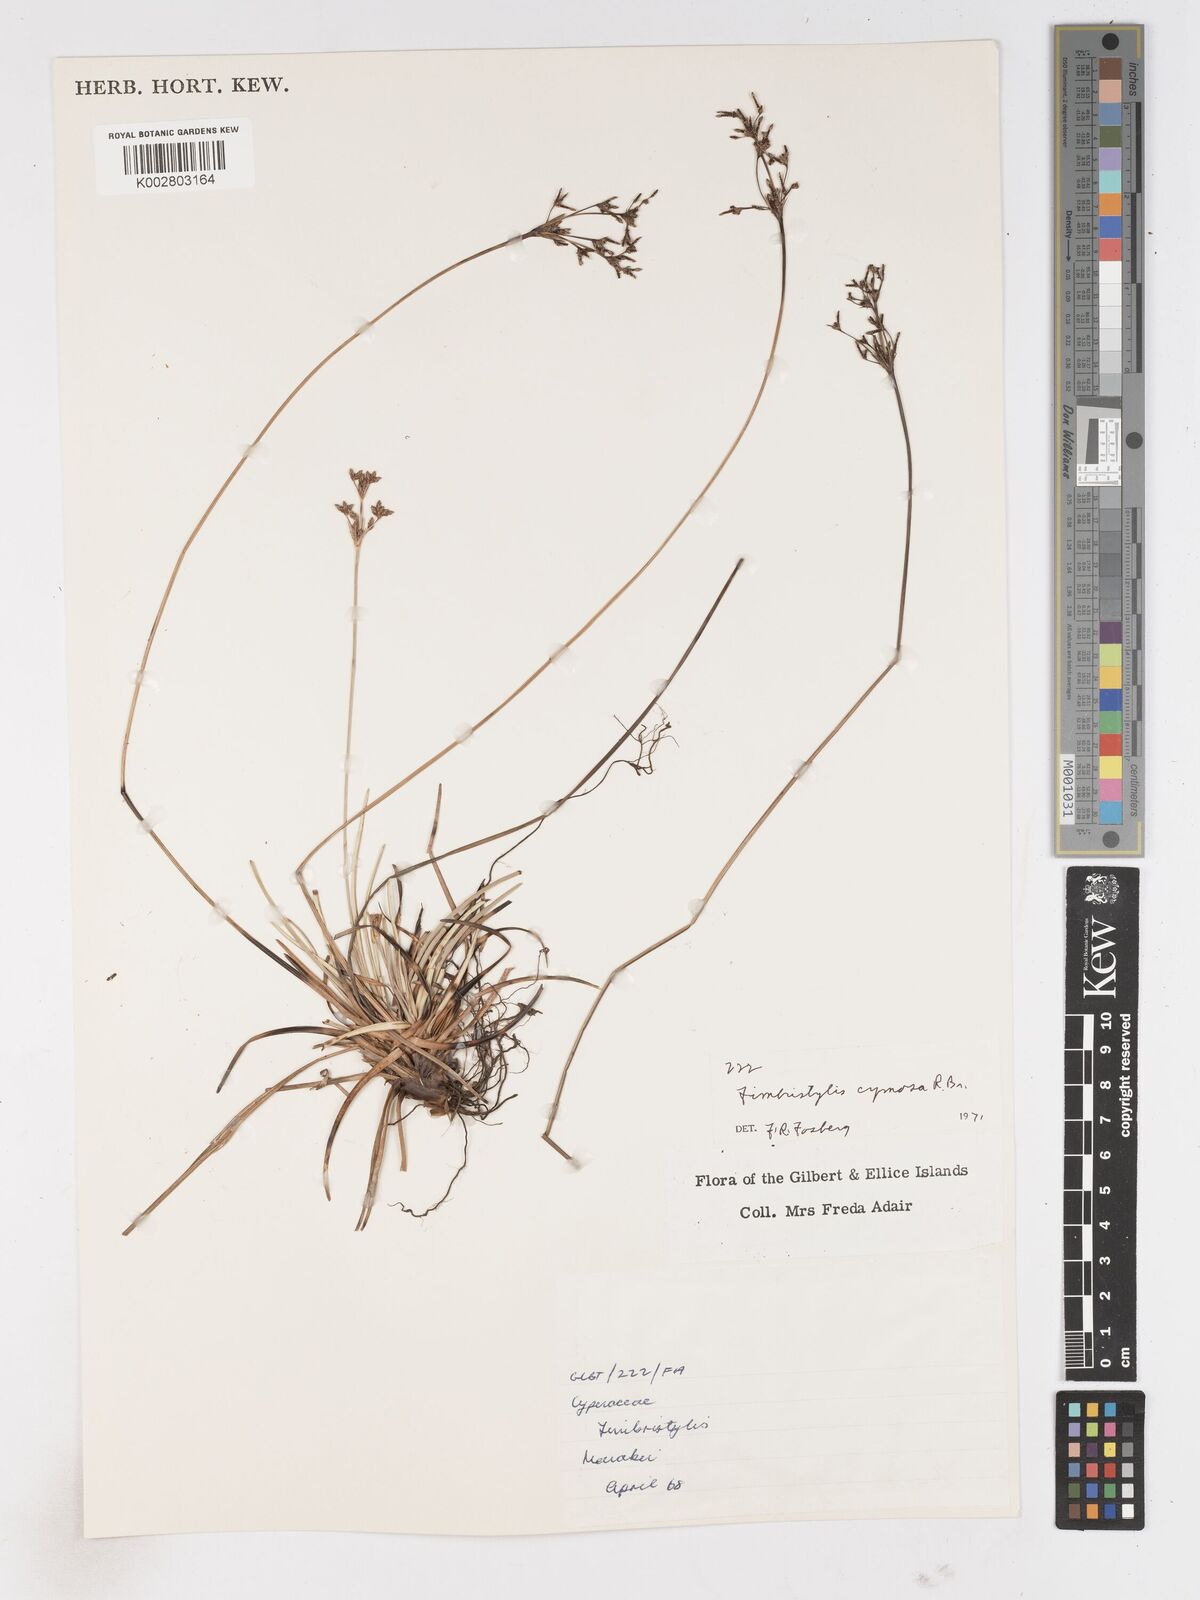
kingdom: Plantae
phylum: Tracheophyta
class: Liliopsida
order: Poales
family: Cyperaceae
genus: Fimbristylis
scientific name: Fimbristylis cymosa
